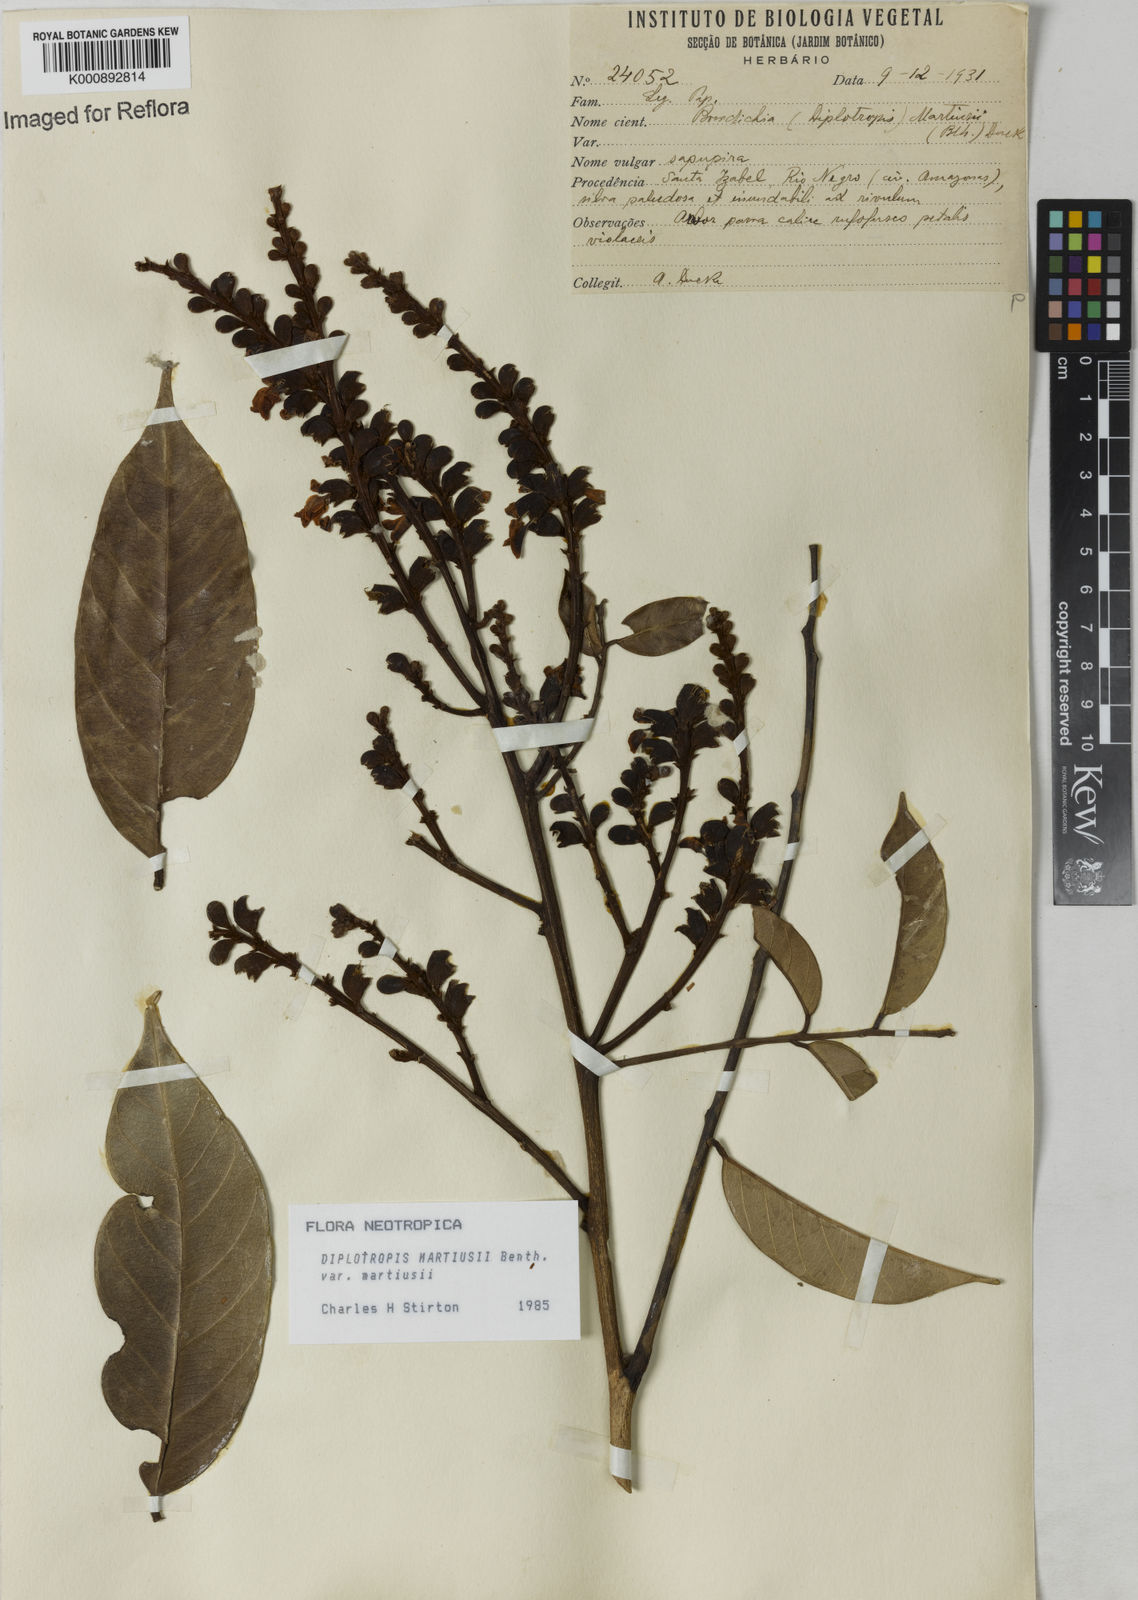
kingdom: Plantae
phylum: Tracheophyta
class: Magnoliopsida
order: Fabales
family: Fabaceae
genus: Diplotropis
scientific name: Diplotropis
